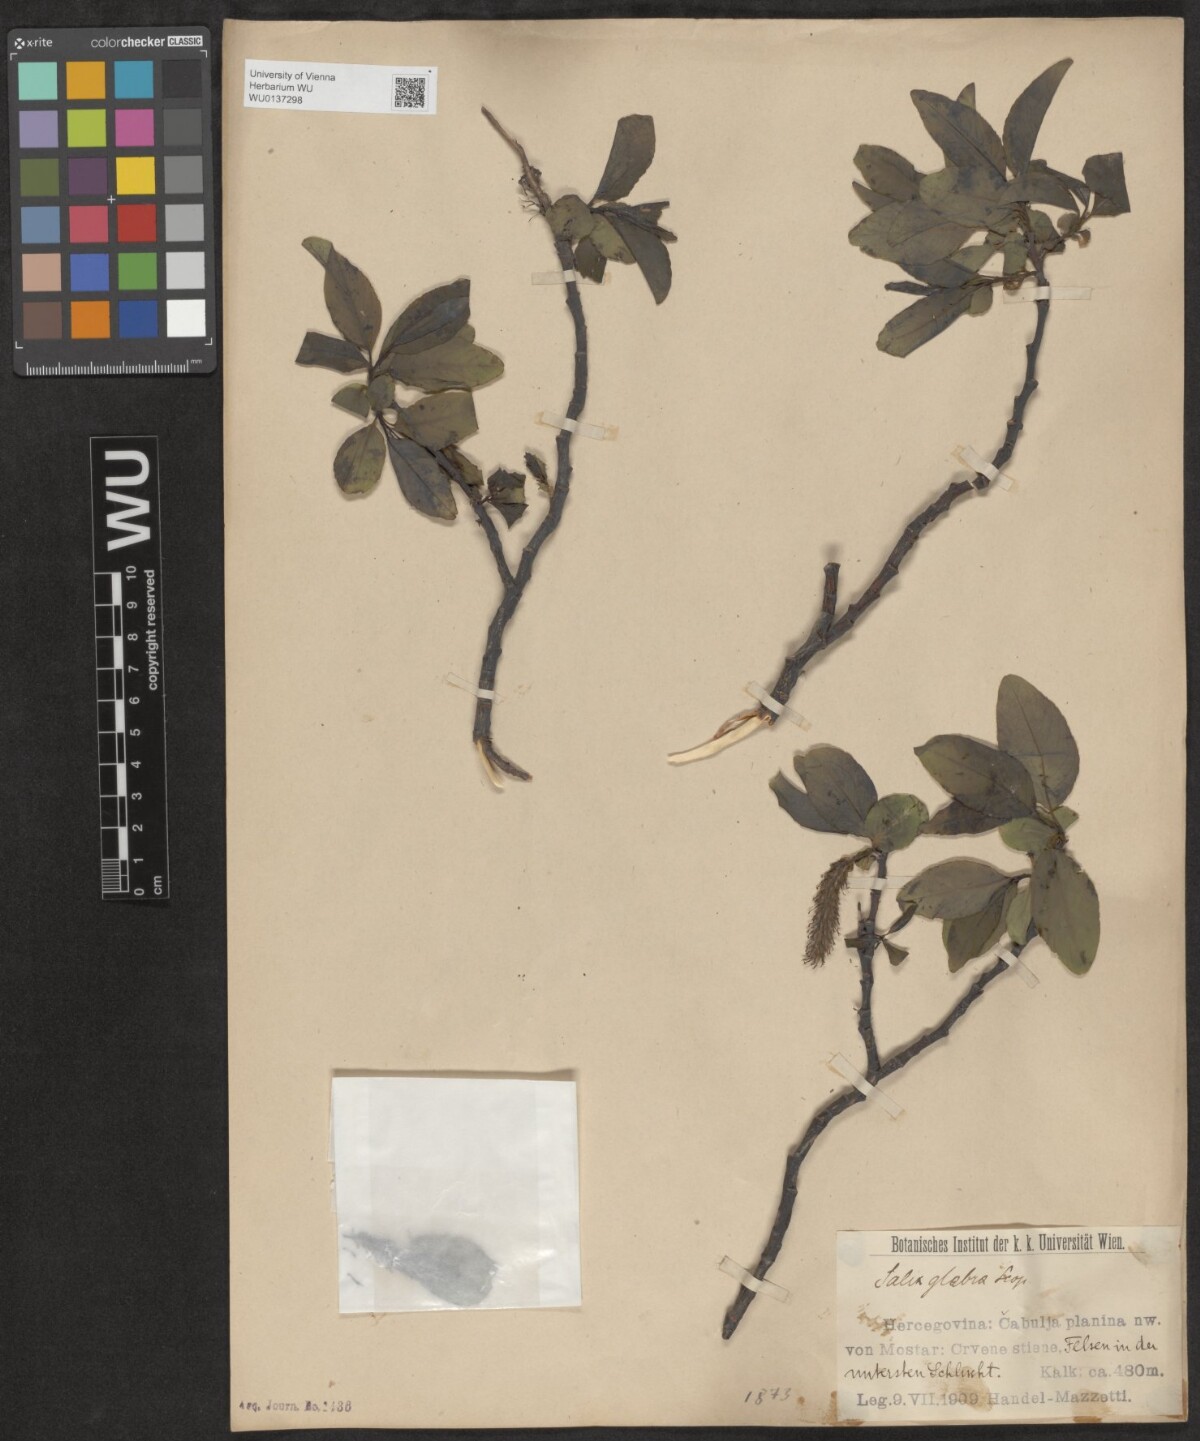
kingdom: Plantae
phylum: Tracheophyta
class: Magnoliopsida
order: Malpighiales
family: Salicaceae
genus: Salix
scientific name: Salix glabra
